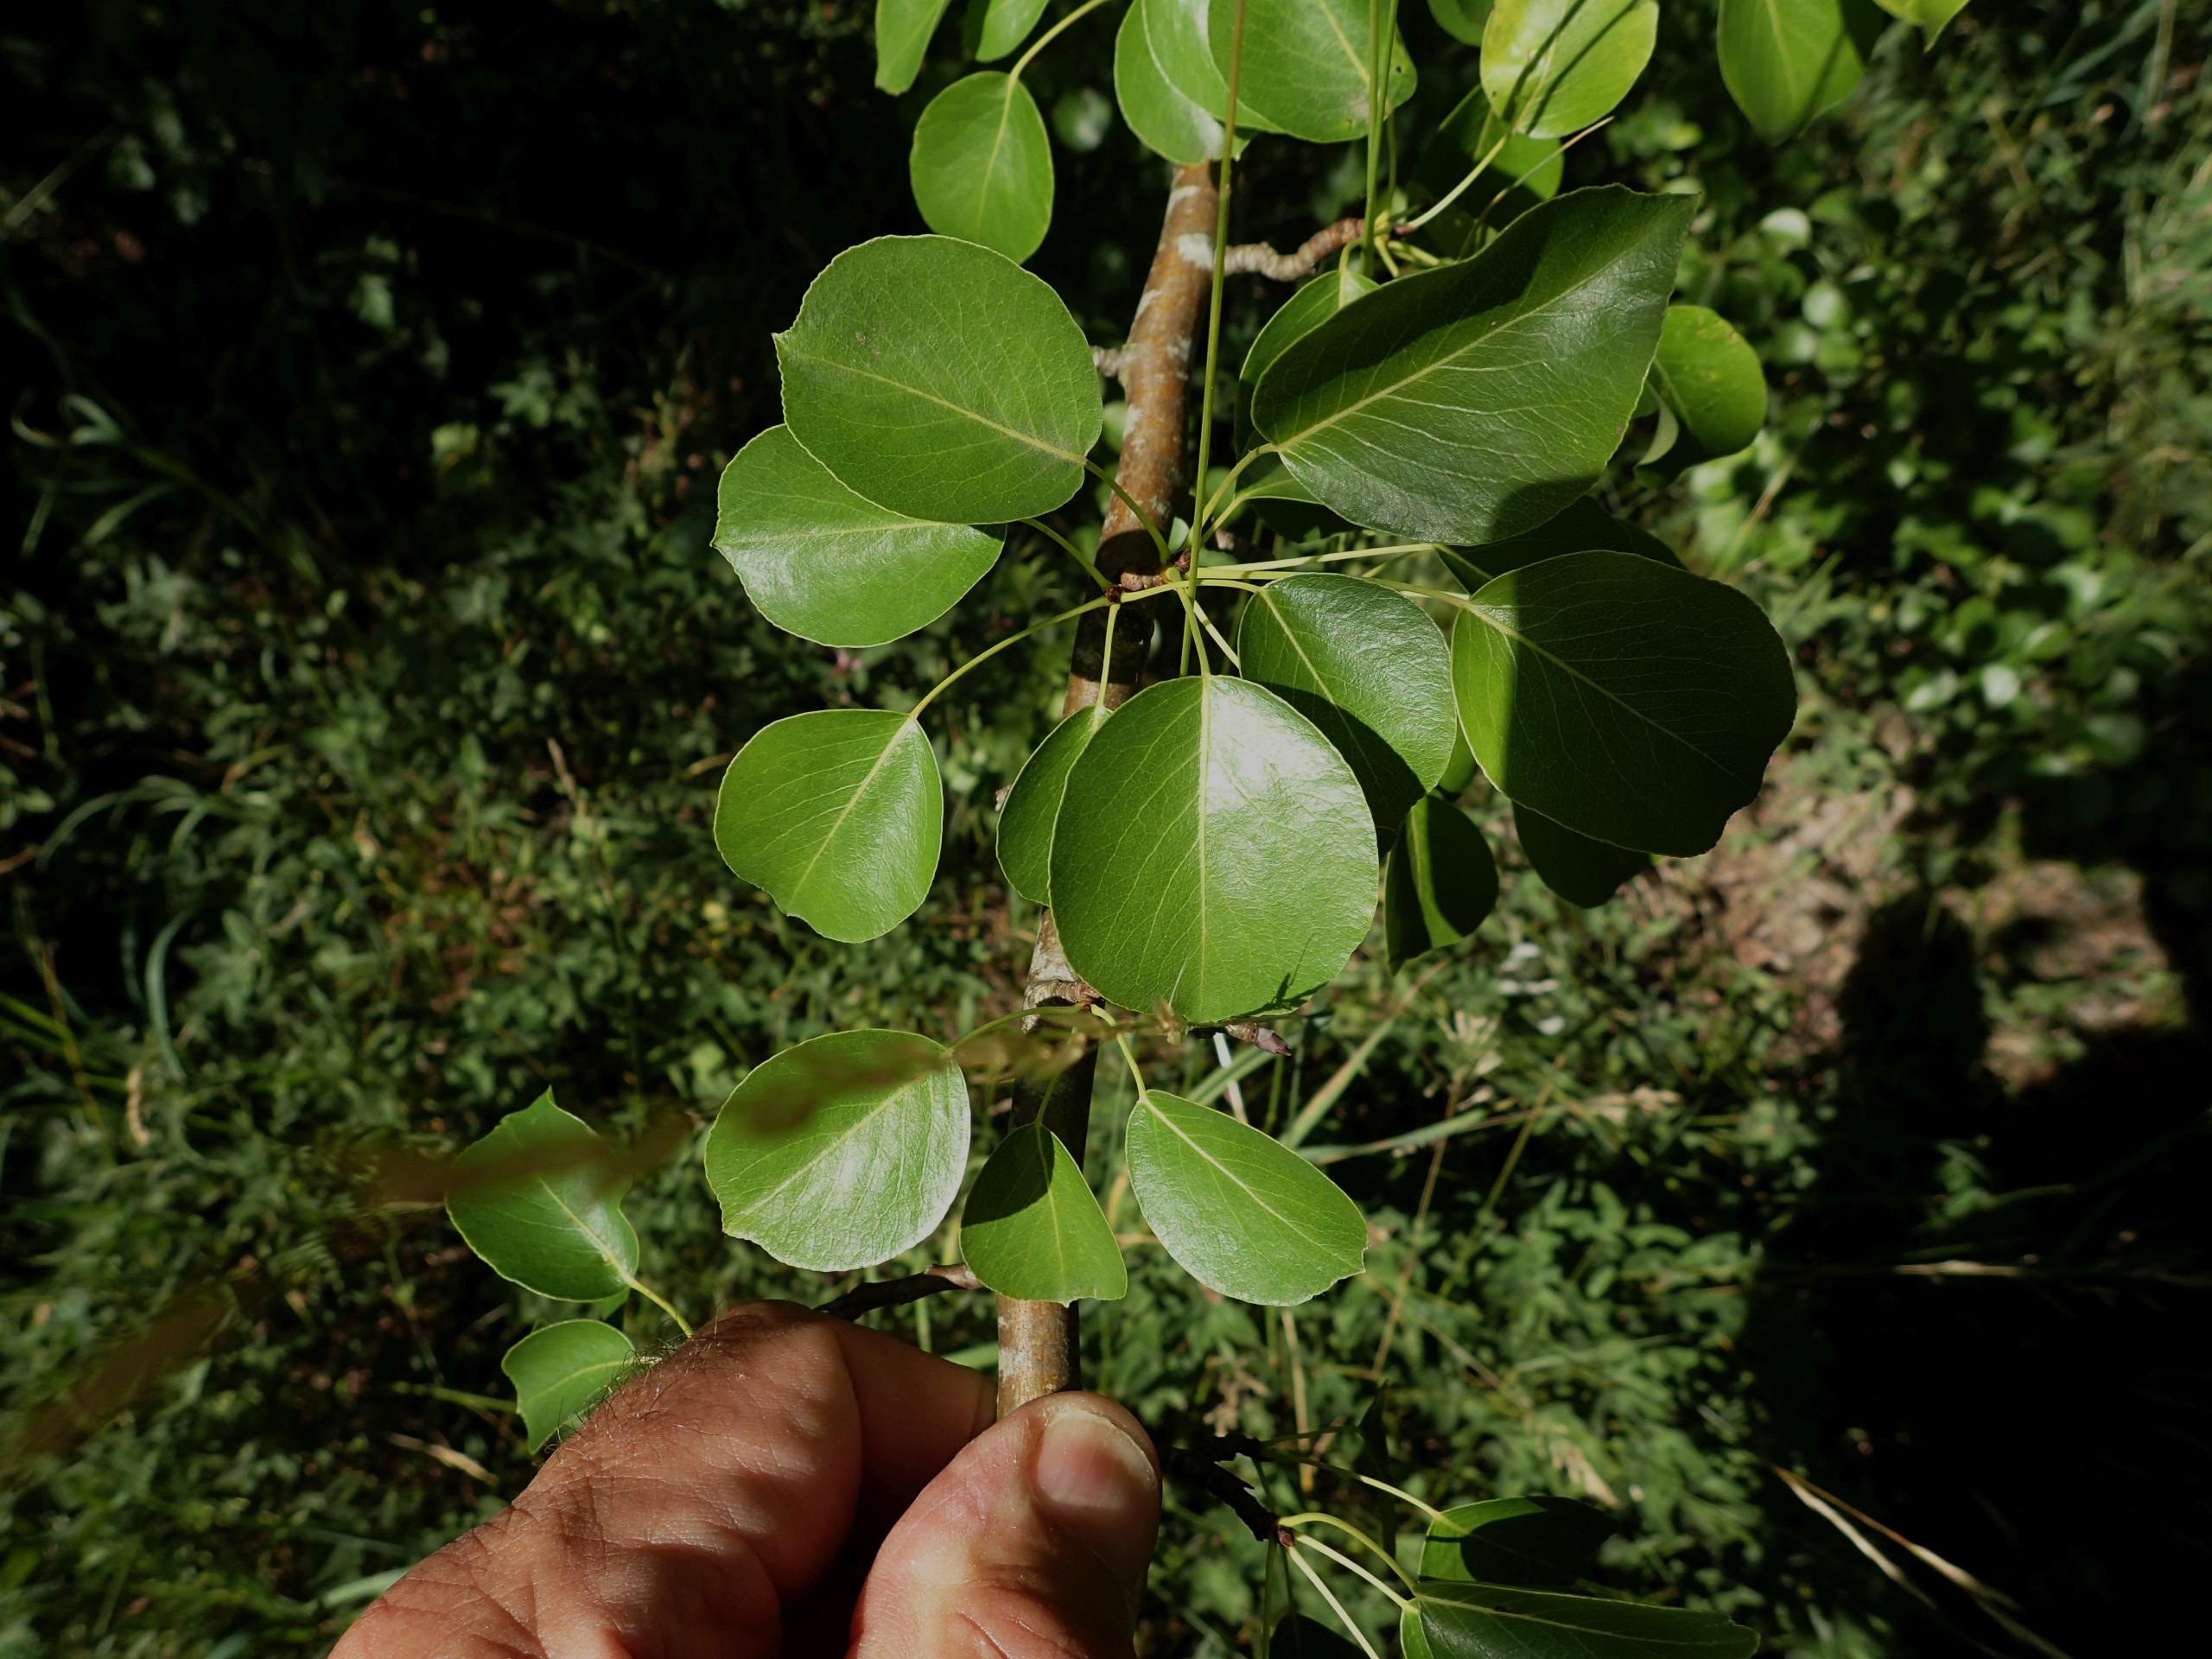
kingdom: Plantae
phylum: Tracheophyta
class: Magnoliopsida
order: Rosales
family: Rosaceae
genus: Pyrus
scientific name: Pyrus communis
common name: Pære
